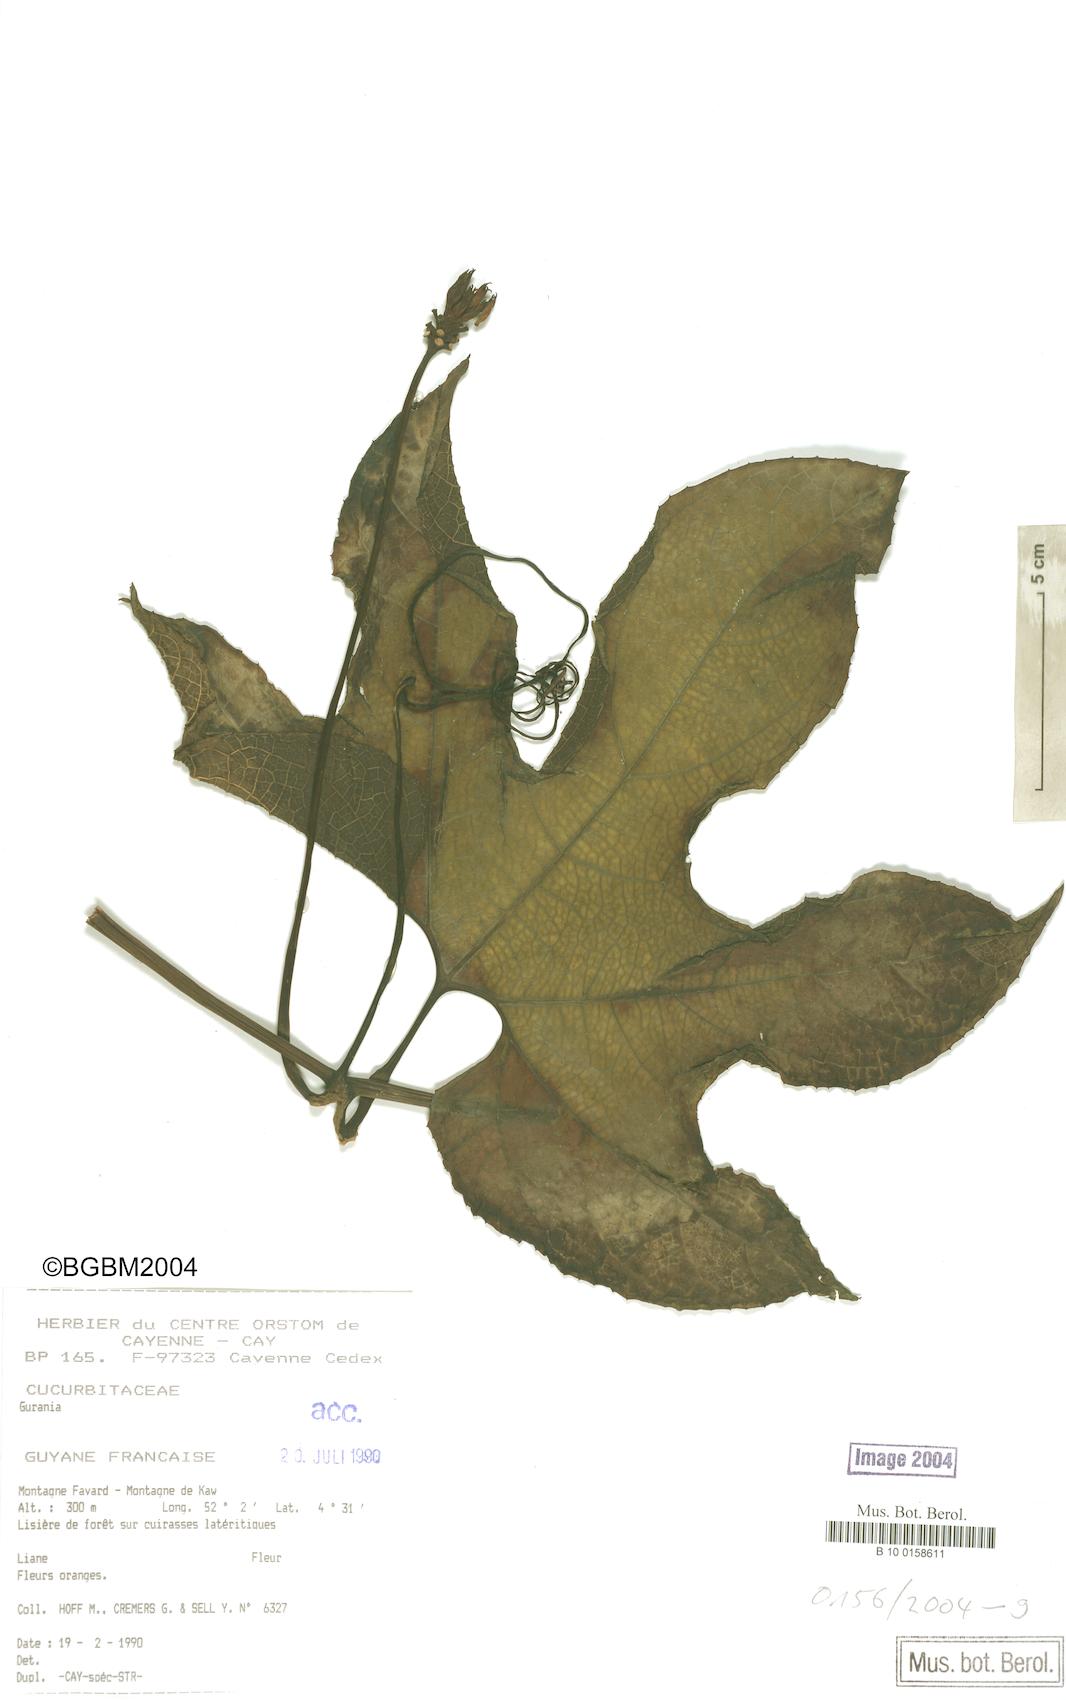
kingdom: Plantae
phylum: Tracheophyta
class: Magnoliopsida
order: Cucurbitales
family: Cucurbitaceae
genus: Gurania
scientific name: Gurania lobata
